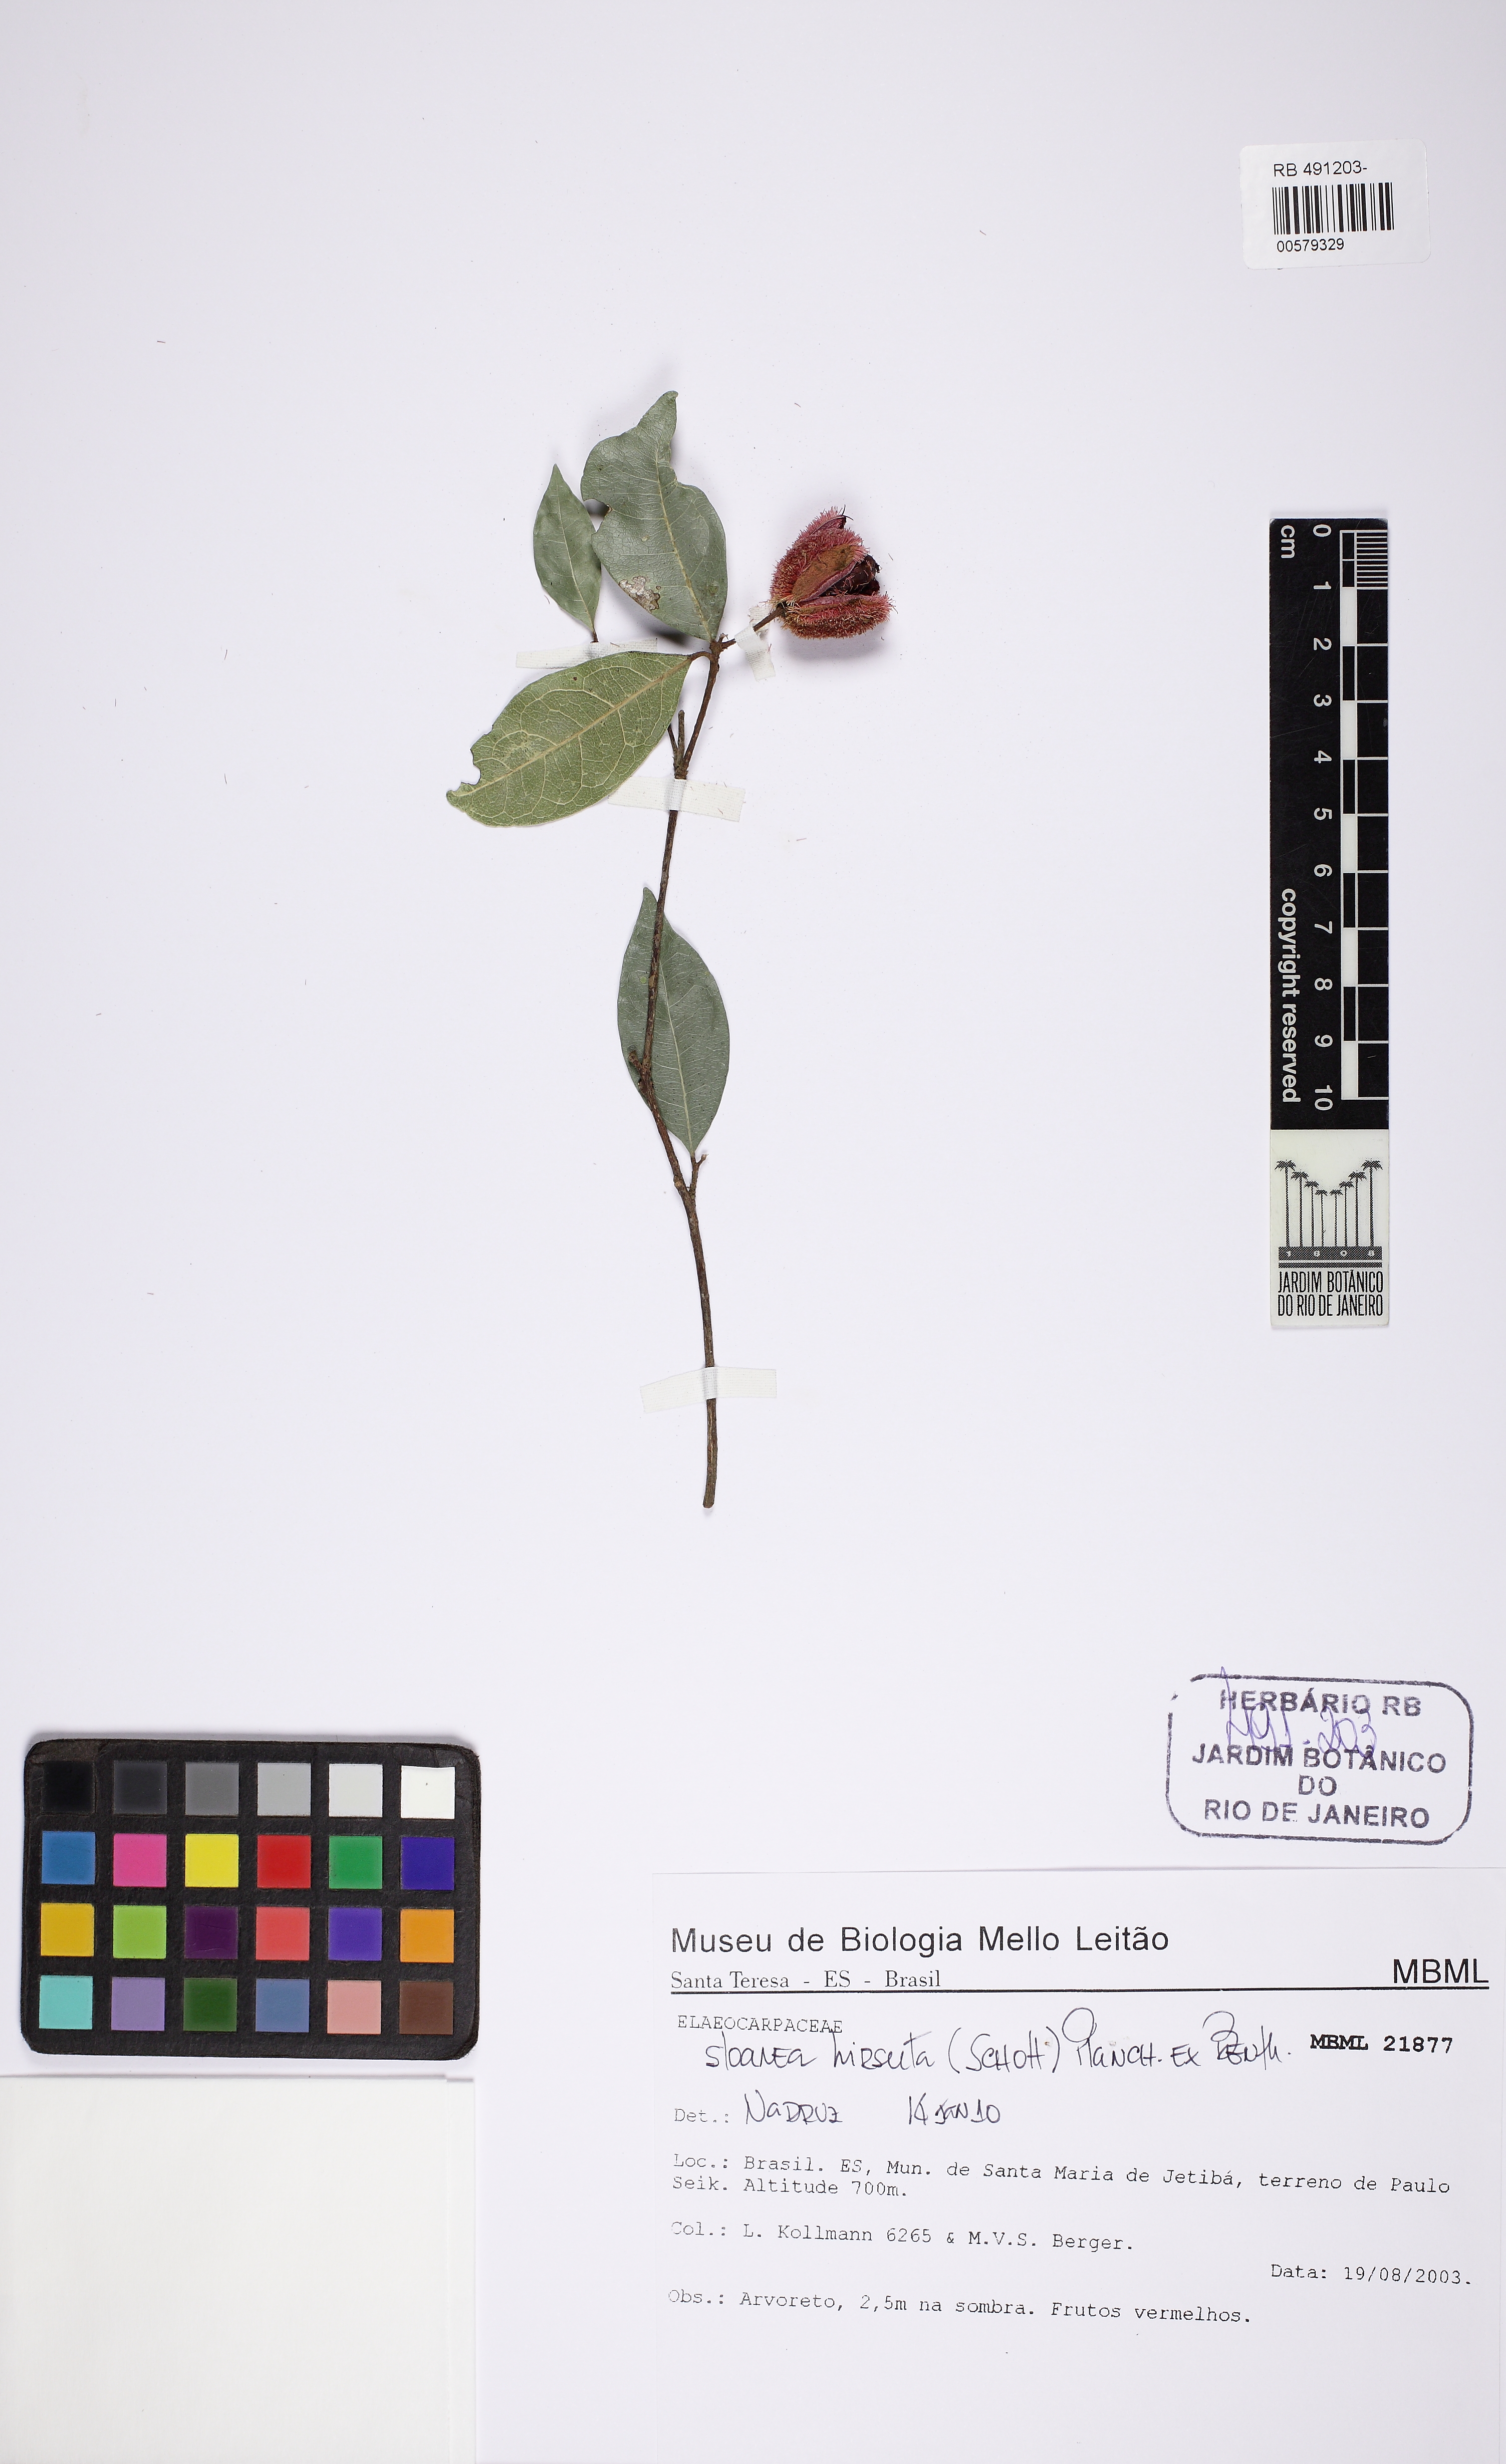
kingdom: Plantae
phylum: Tracheophyta
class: Magnoliopsida
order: Oxalidales
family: Elaeocarpaceae
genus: Sloanea
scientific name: Sloanea hirsuta
